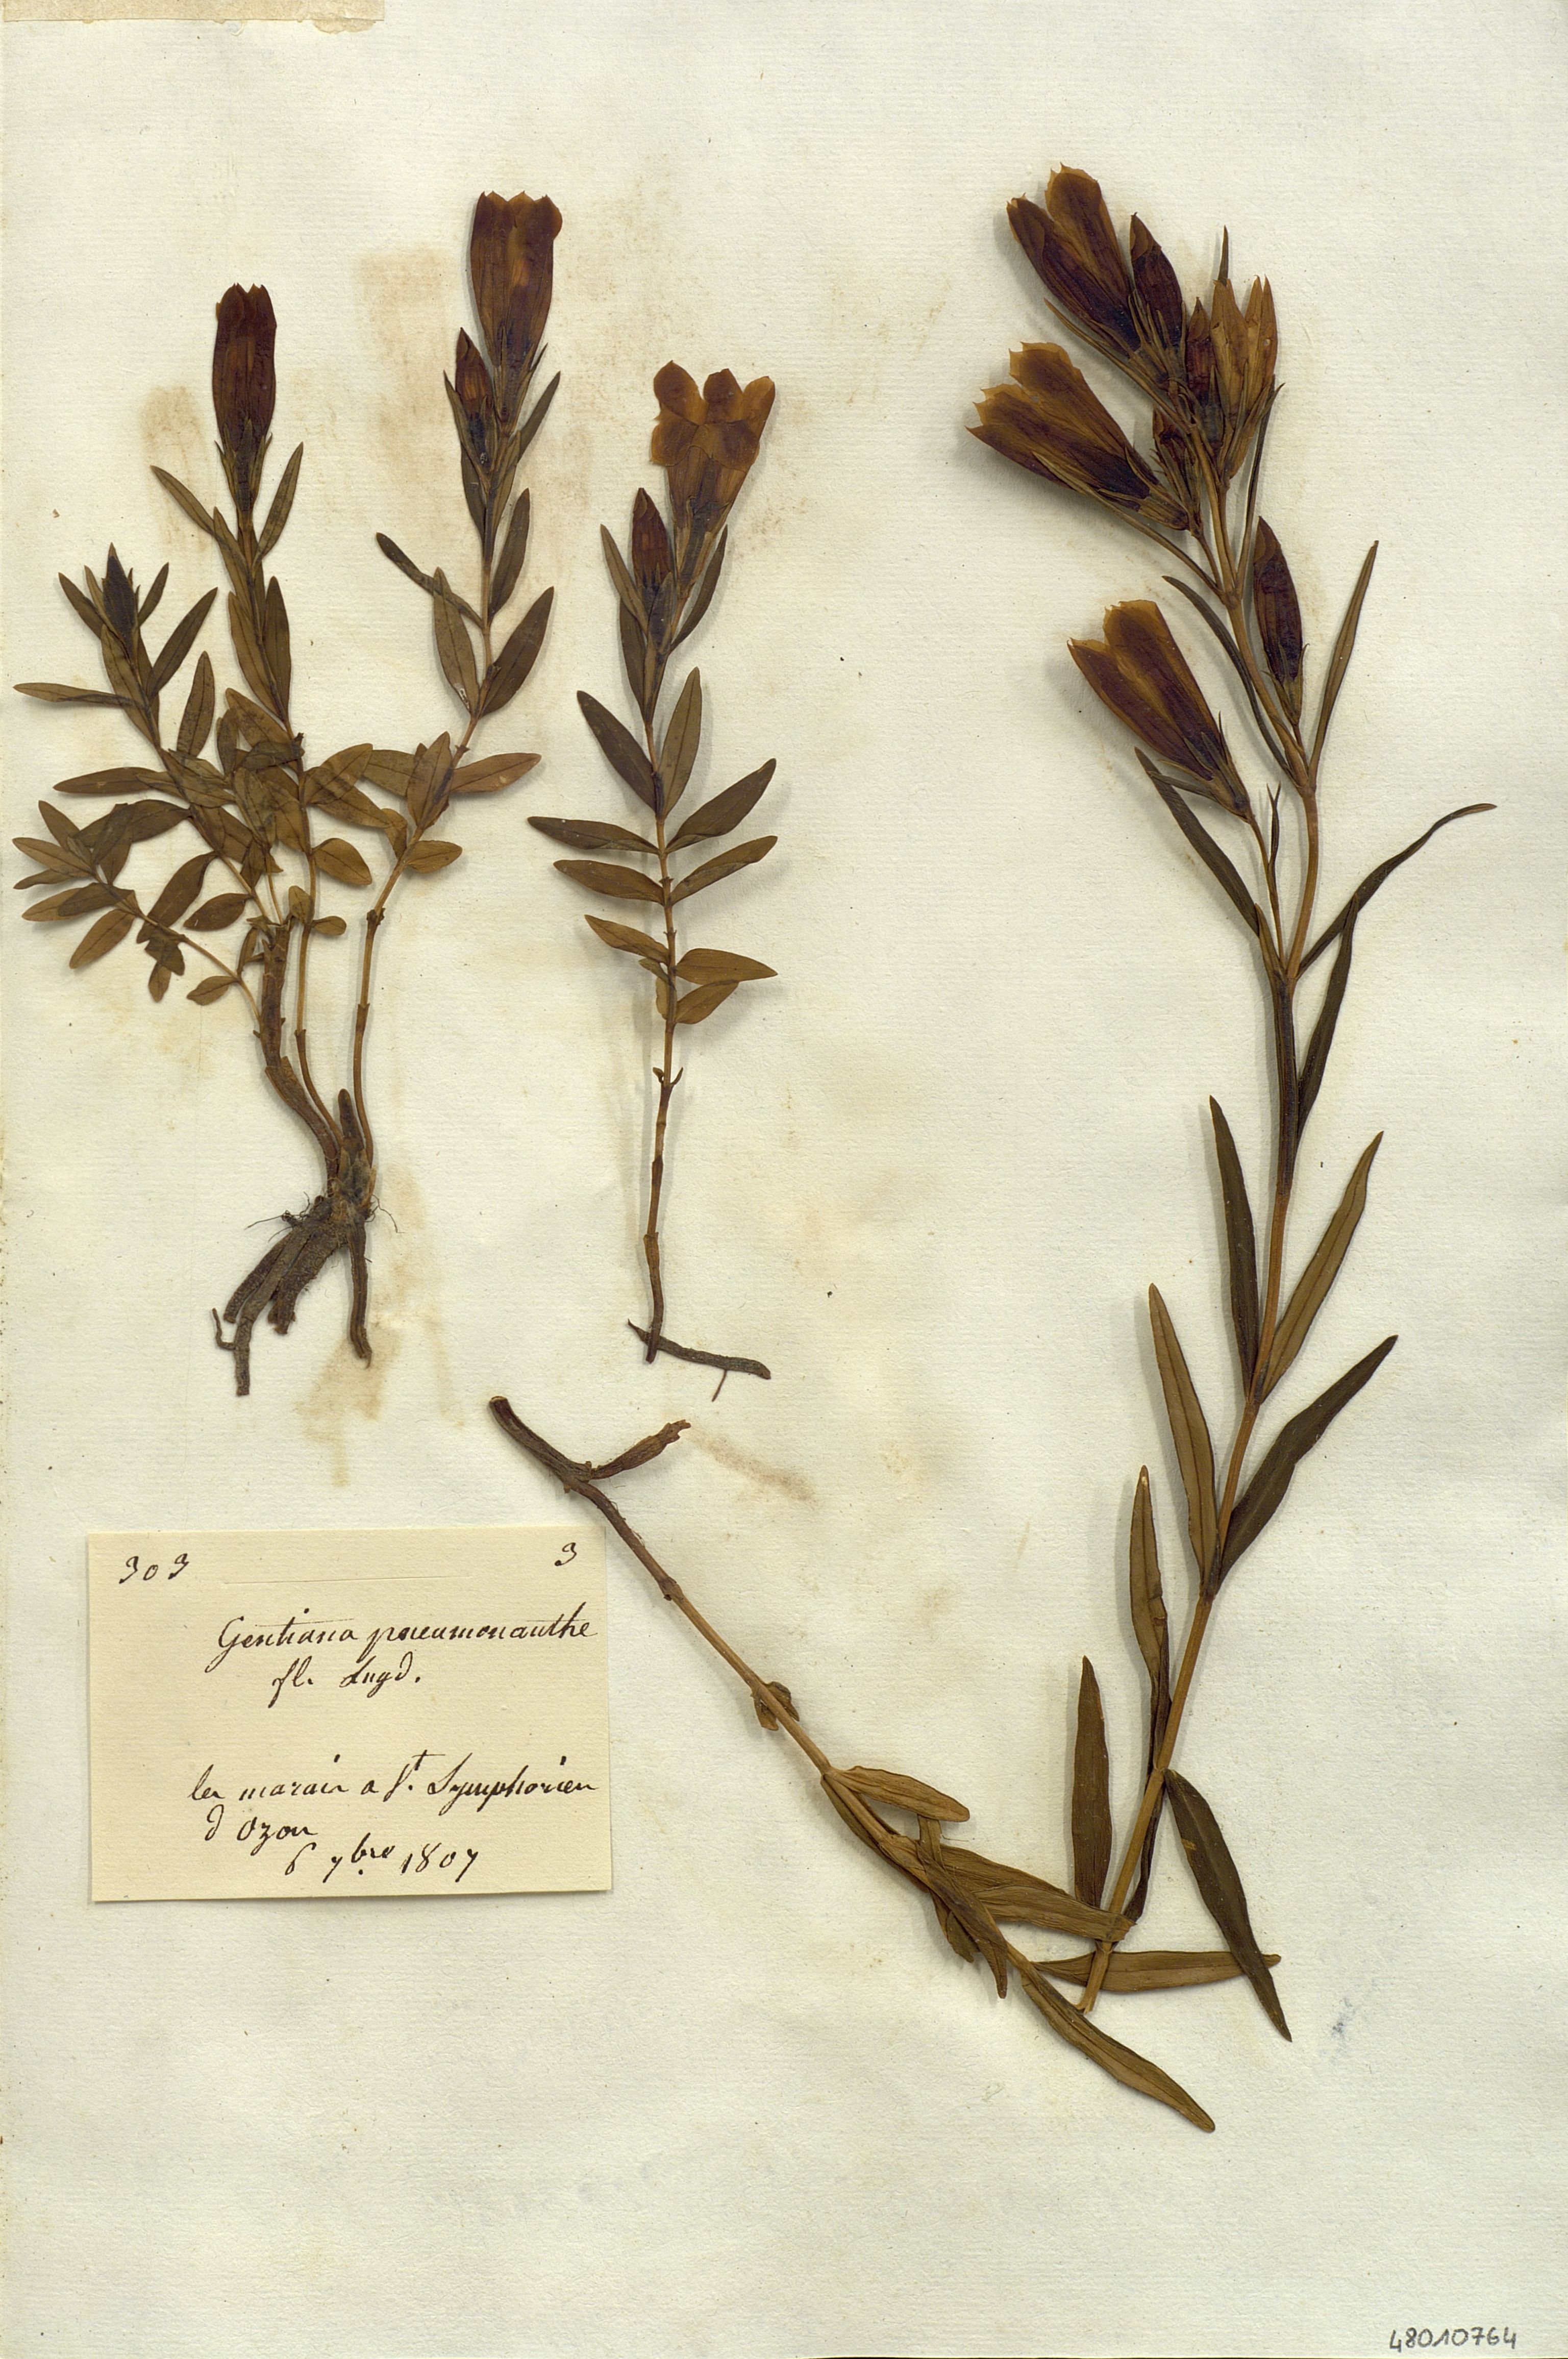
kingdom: Plantae
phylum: Tracheophyta
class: Magnoliopsida
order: Gentianales
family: Gentianaceae
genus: Gentiana
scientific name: Gentiana pneumonanthe
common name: Marsh gentian
